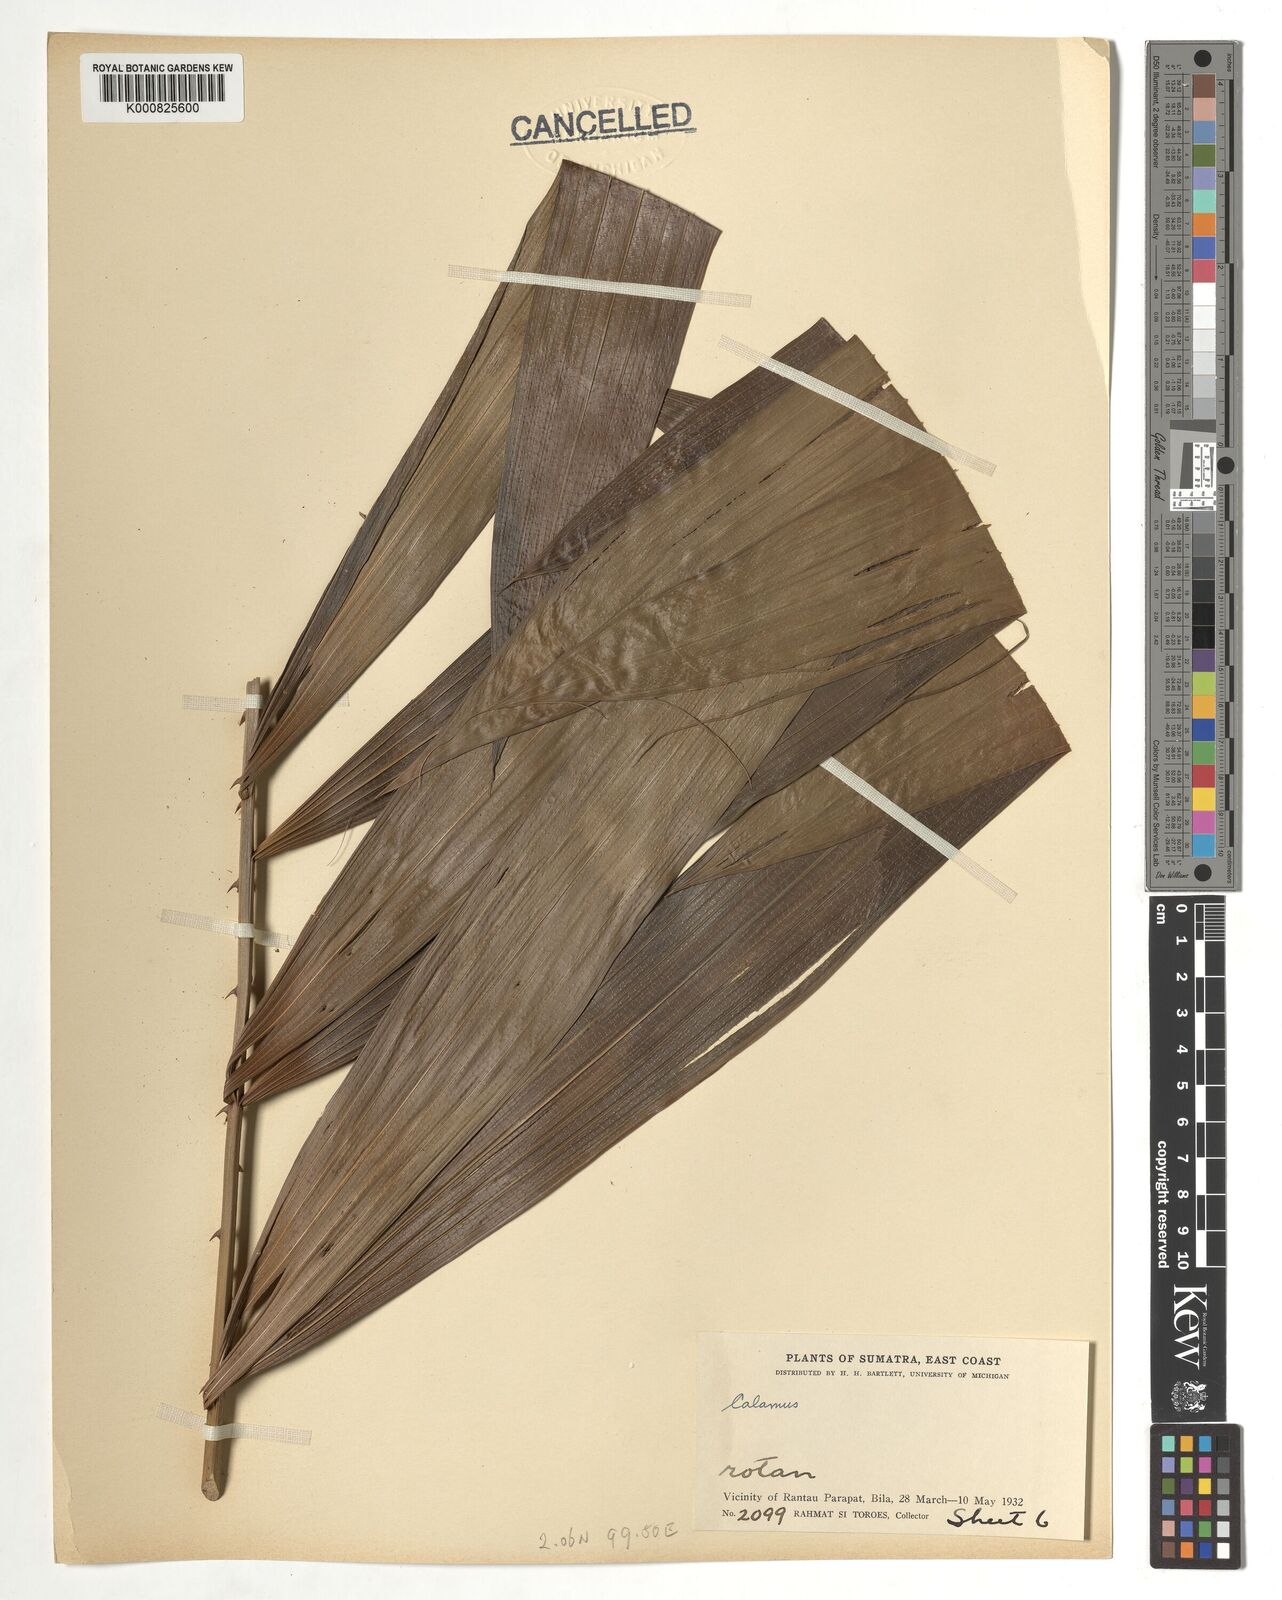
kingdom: Plantae
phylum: Tracheophyta
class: Liliopsida
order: Arecales
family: Arecaceae
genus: Calamus
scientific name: Calamus
